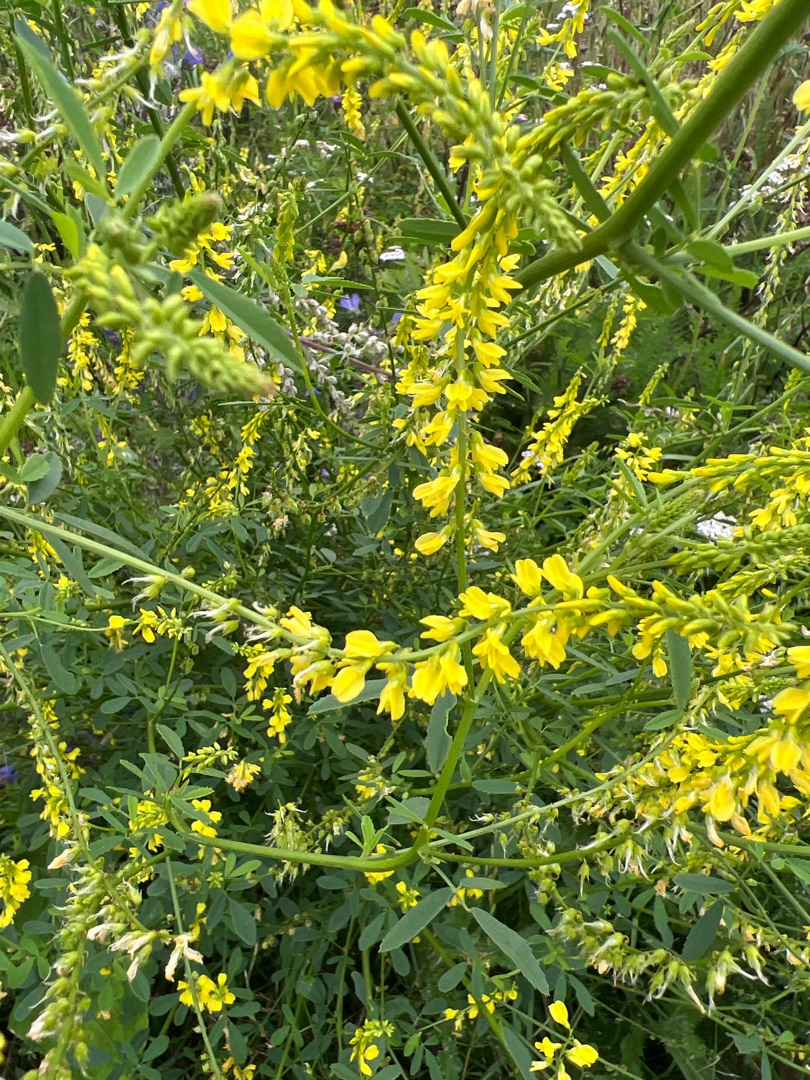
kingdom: Plantae
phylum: Tracheophyta
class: Magnoliopsida
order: Fabales
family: Fabaceae
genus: Melilotus
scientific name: Melilotus officinalis
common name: Mark-stenkløver
